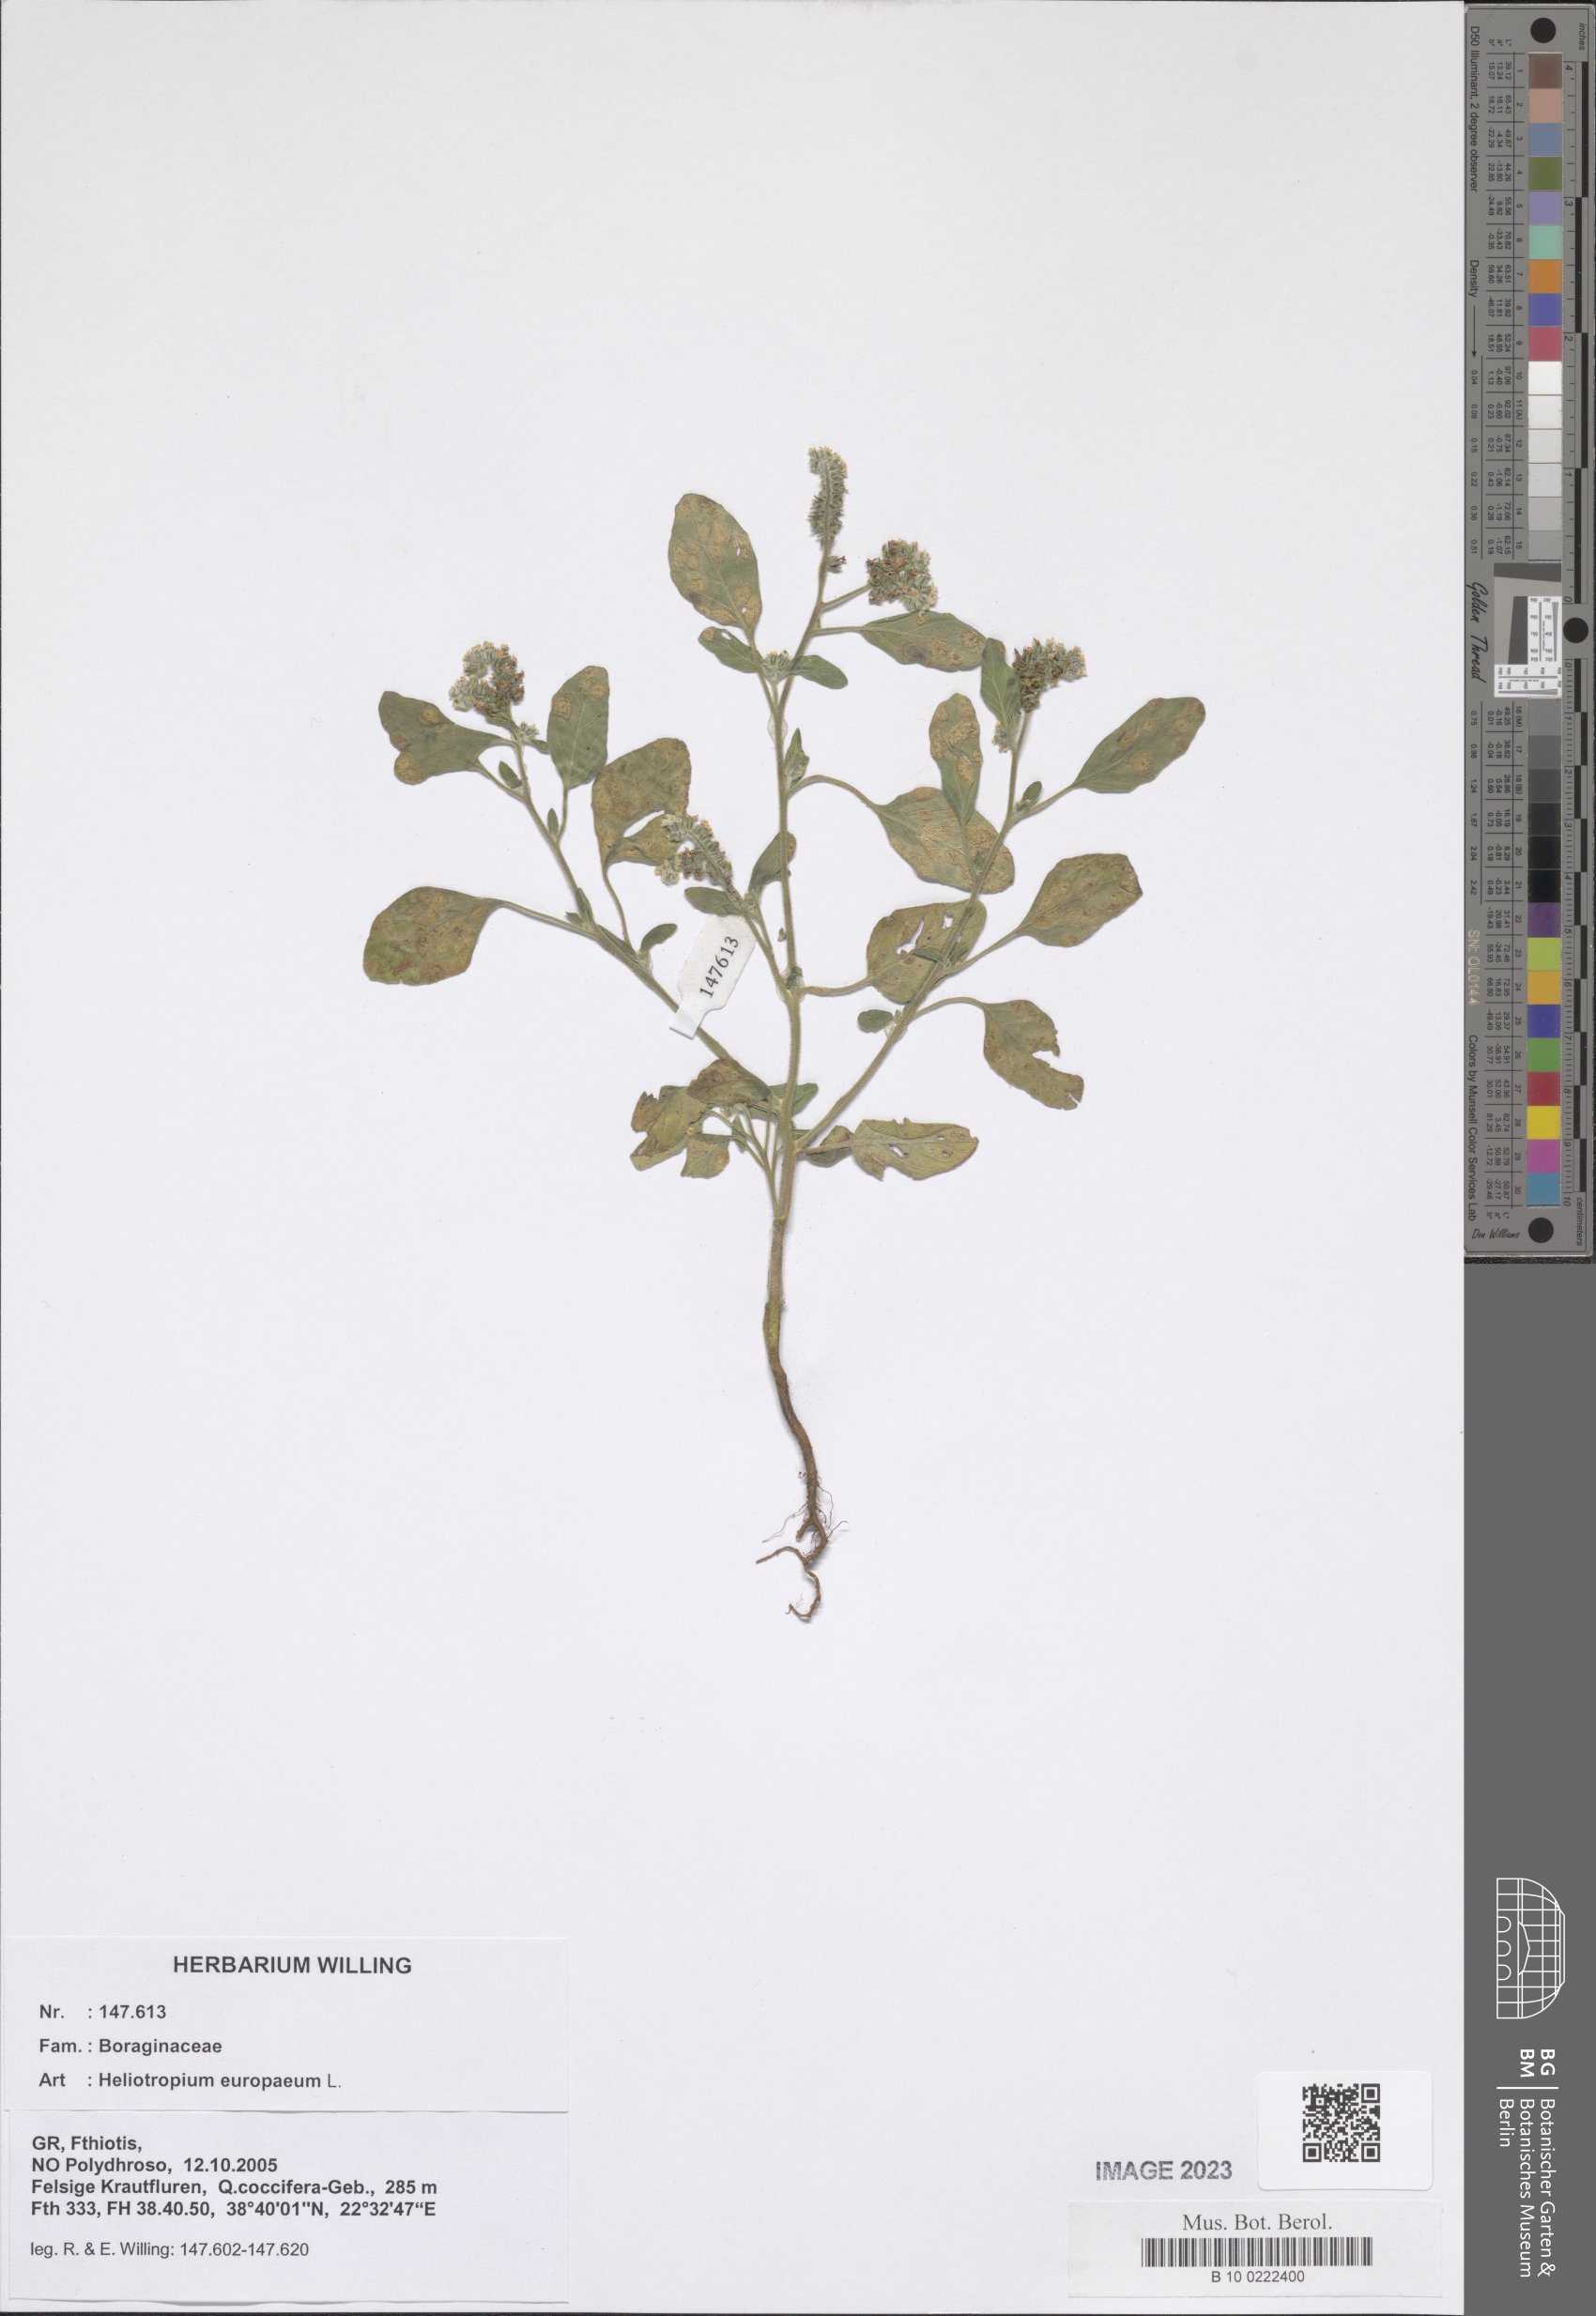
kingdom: Plantae
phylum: Tracheophyta
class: Magnoliopsida
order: Boraginales
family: Heliotropiaceae
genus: Heliotropium
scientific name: Heliotropium europaeum
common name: European heliotrope
